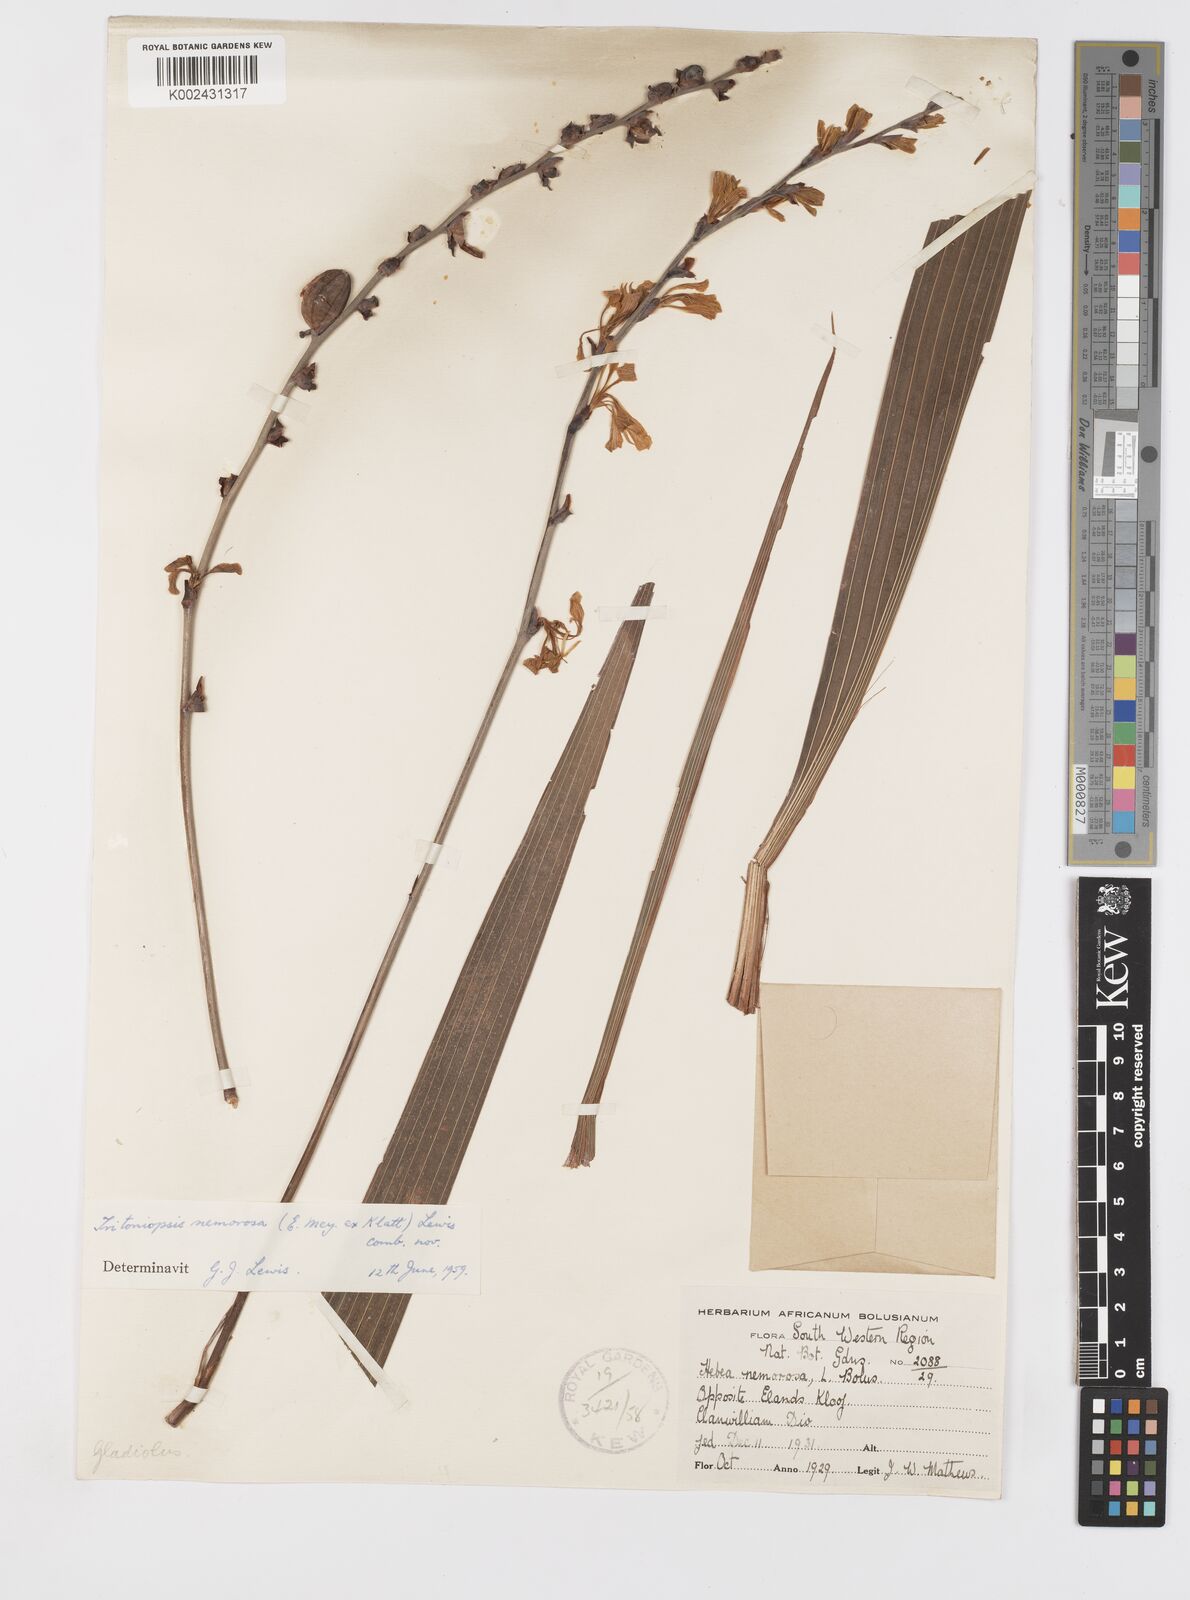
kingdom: Plantae
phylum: Tracheophyta
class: Liliopsida
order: Asparagales
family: Iridaceae
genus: Tritoniopsis
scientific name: Tritoniopsis nemorosa
